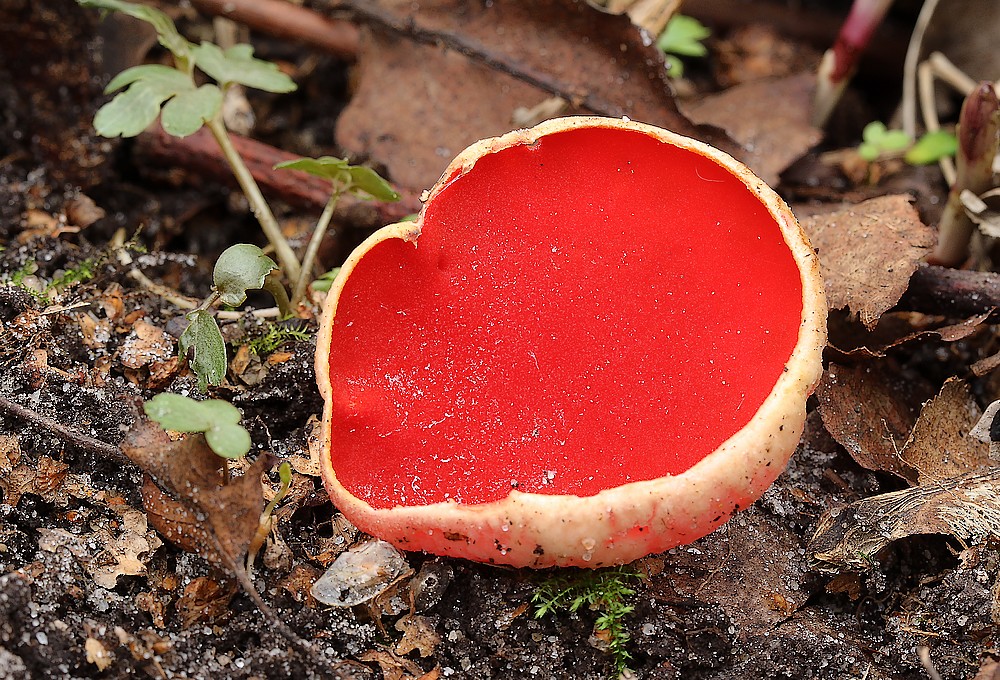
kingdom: Fungi
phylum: Ascomycota
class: Pezizomycetes
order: Pezizales
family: Sarcoscyphaceae
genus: Sarcoscypha
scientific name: Sarcoscypha austriaca
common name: krølhåret pragtbæger
